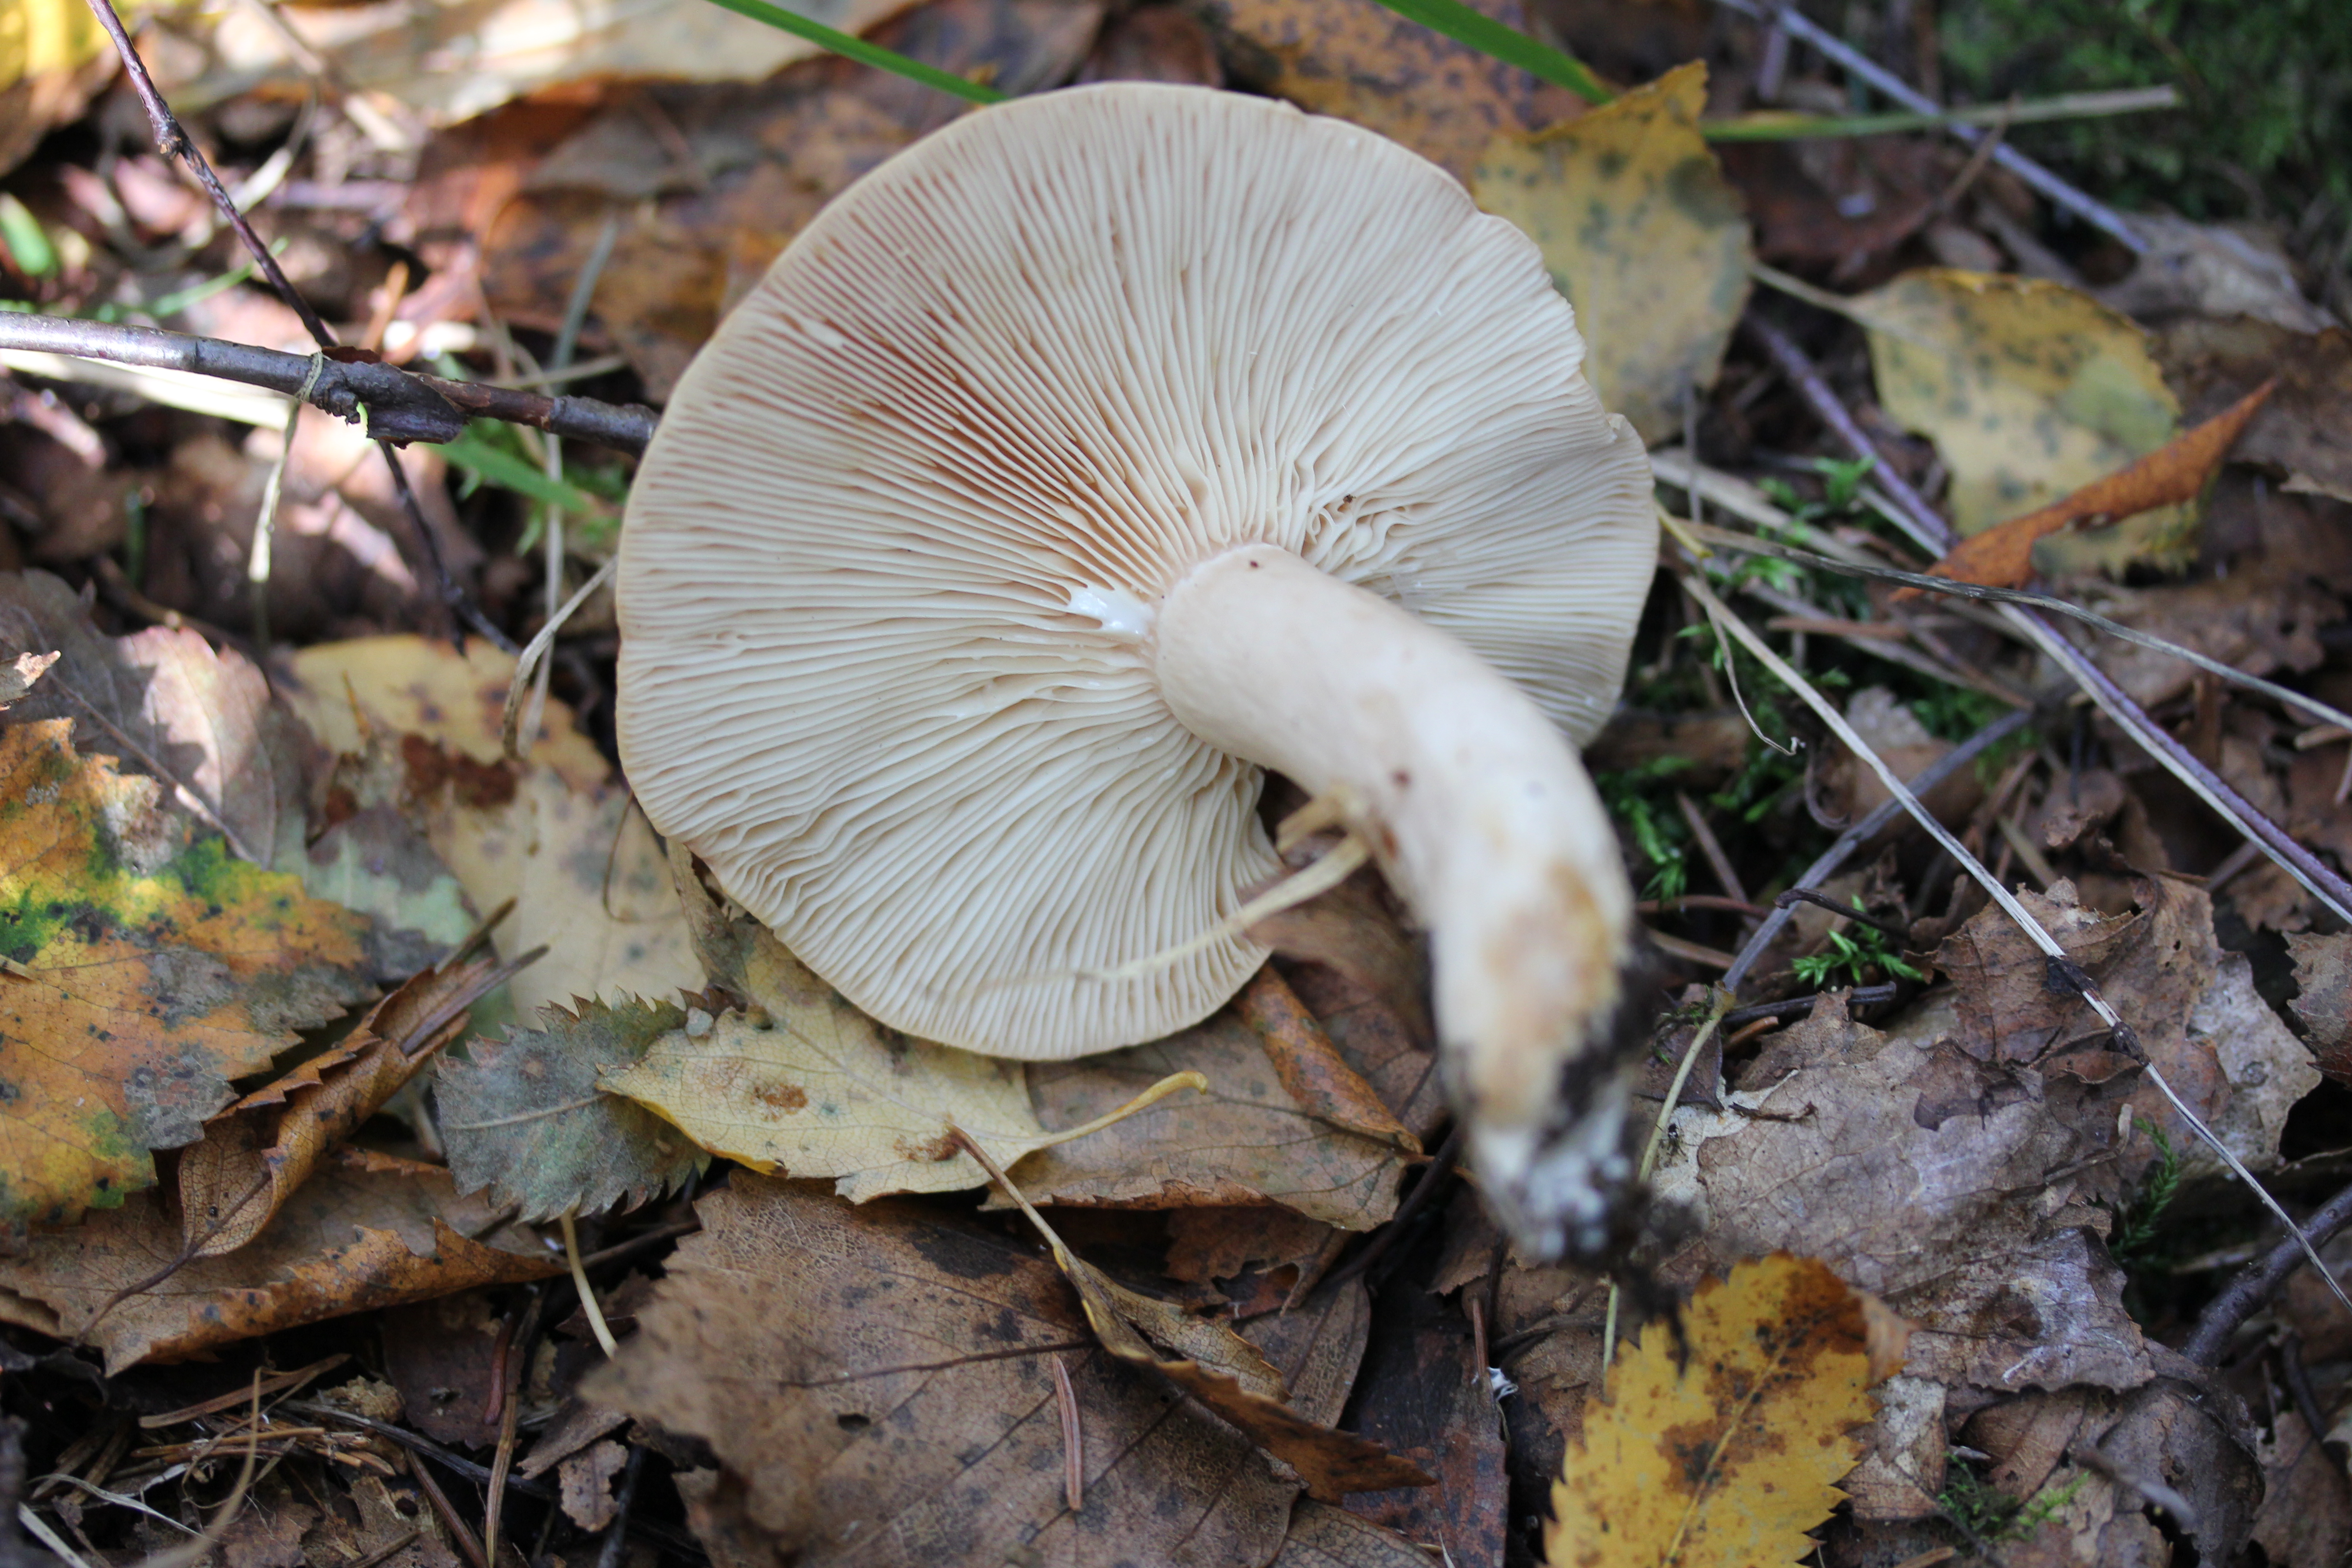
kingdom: Fungi
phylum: Basidiomycota
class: Agaricomycetes
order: Russulales
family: Russulaceae
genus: Lactarius
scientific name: Lactarius trivialis
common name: Tacked milkcap
